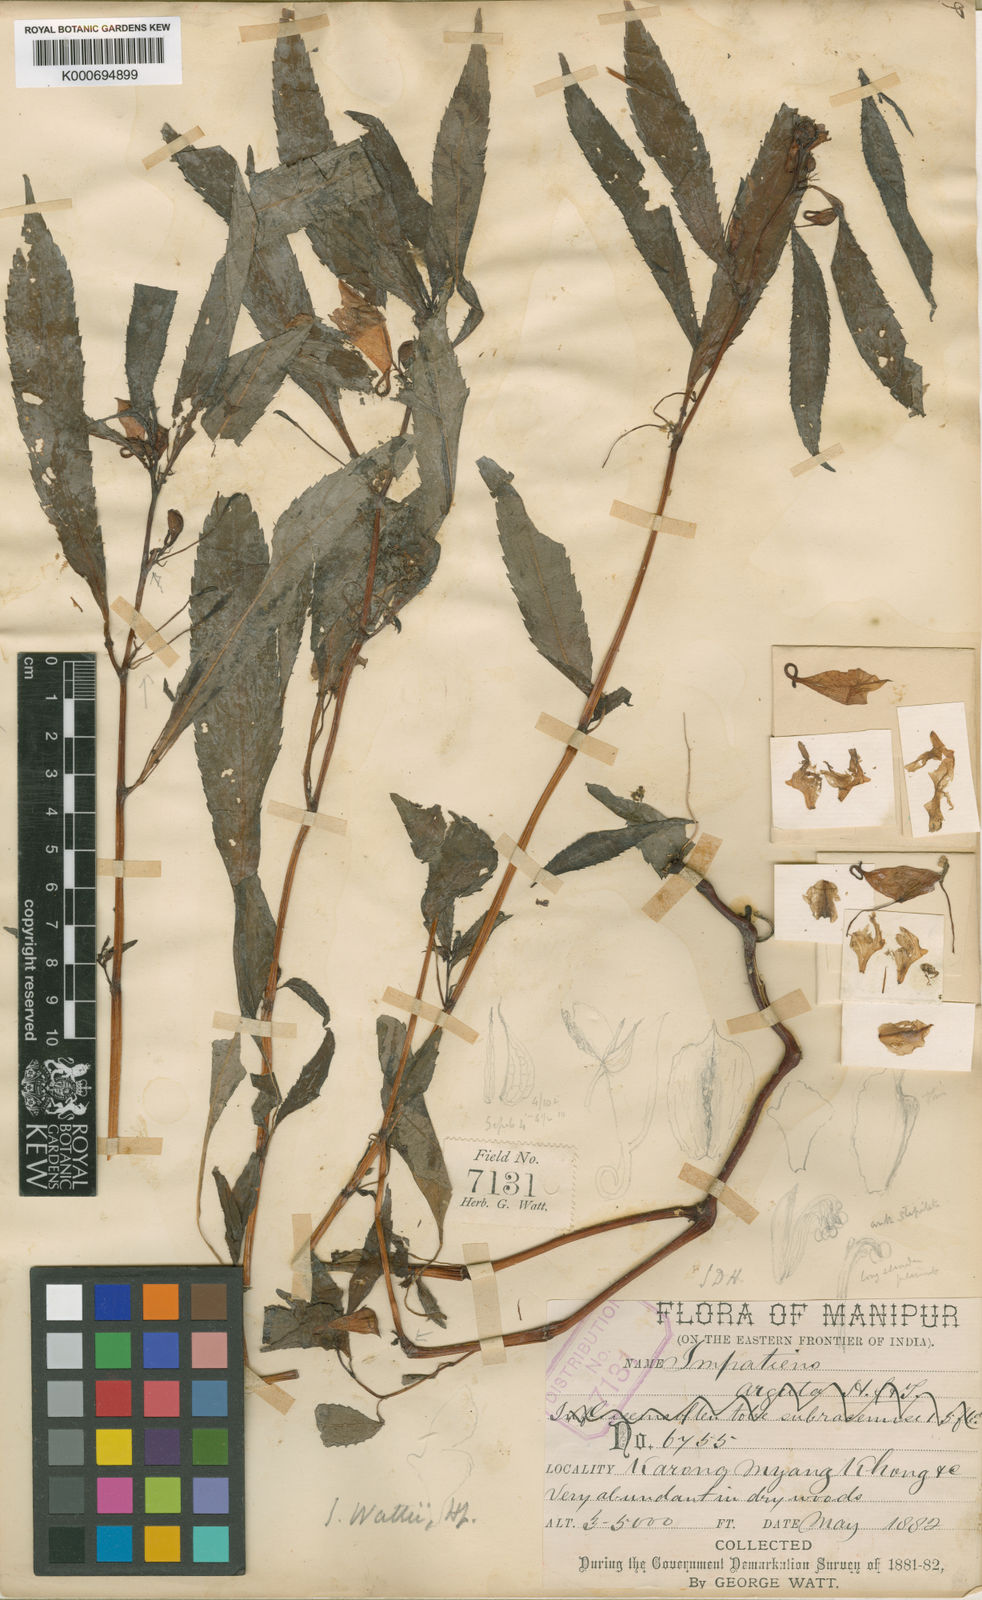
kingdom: Plantae
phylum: Tracheophyta
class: Magnoliopsida
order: Ericales
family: Balsaminaceae
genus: Impatiens
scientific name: Impatiens wattii
